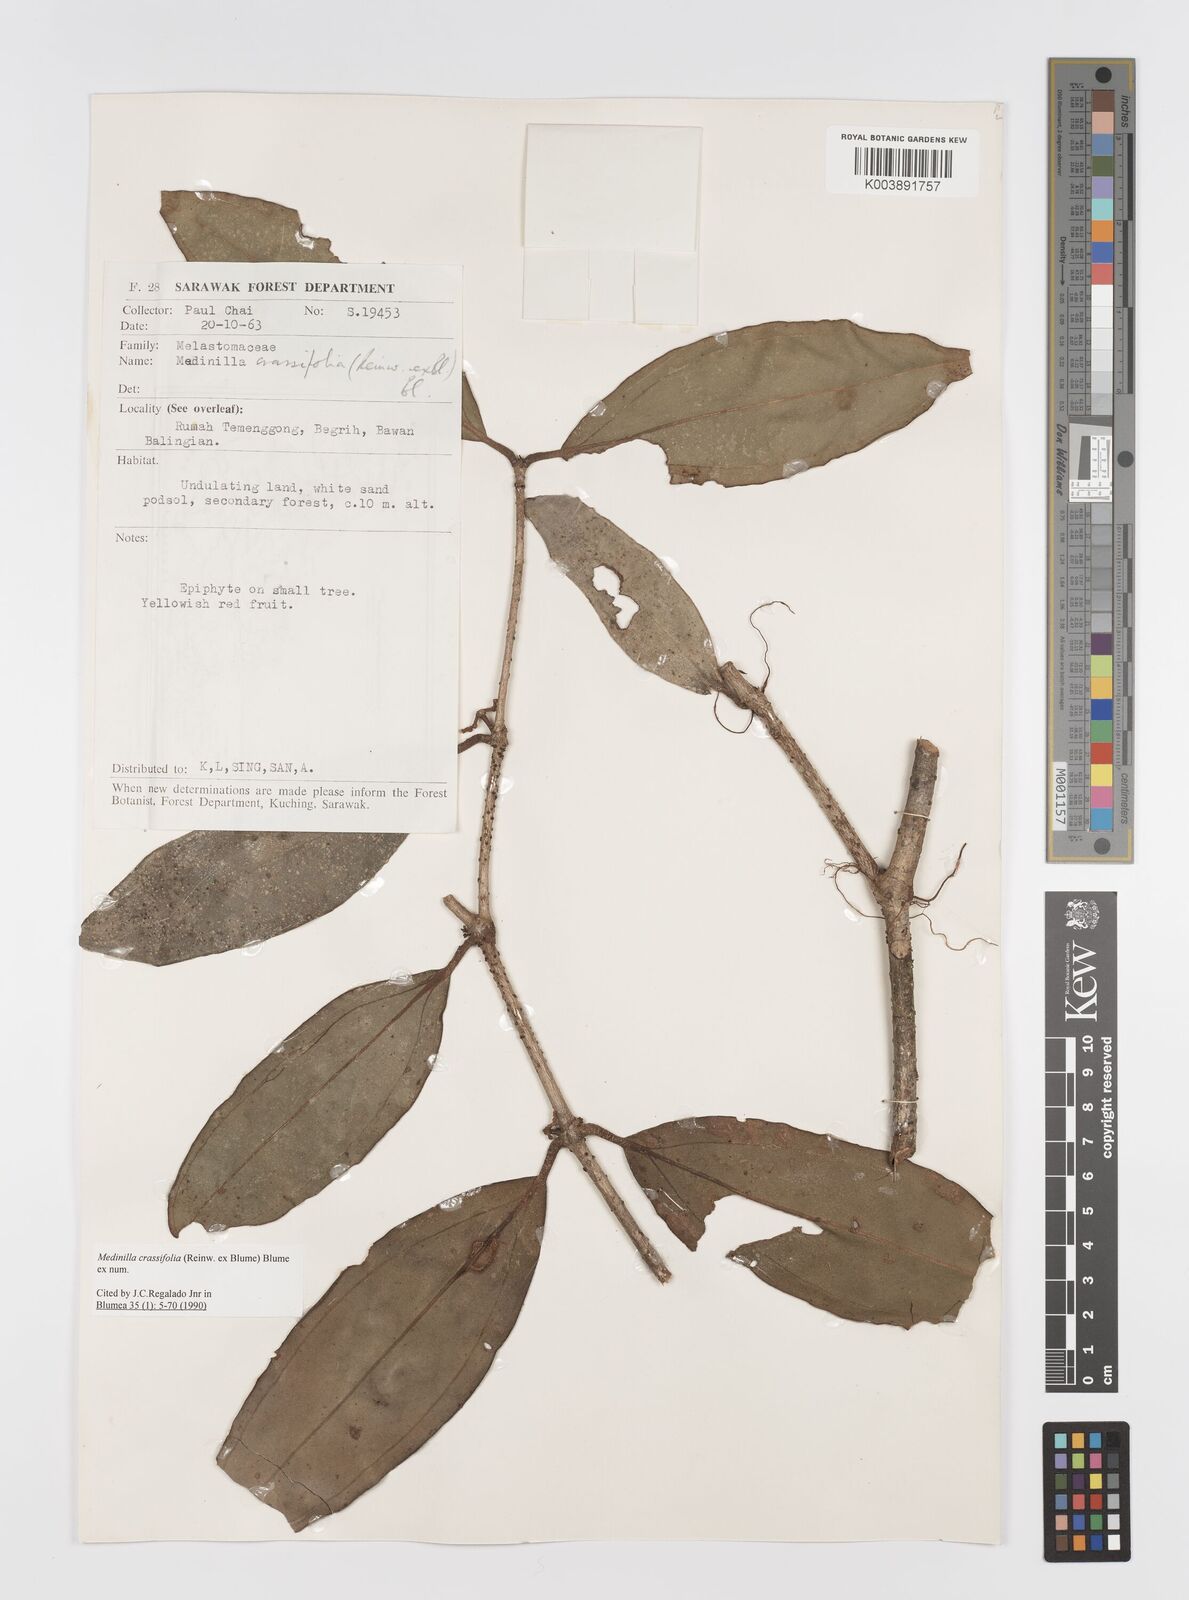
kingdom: Plantae
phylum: Tracheophyta
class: Magnoliopsida
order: Myrtales
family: Melastomataceae
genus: Medinilla
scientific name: Medinilla crassifolia
